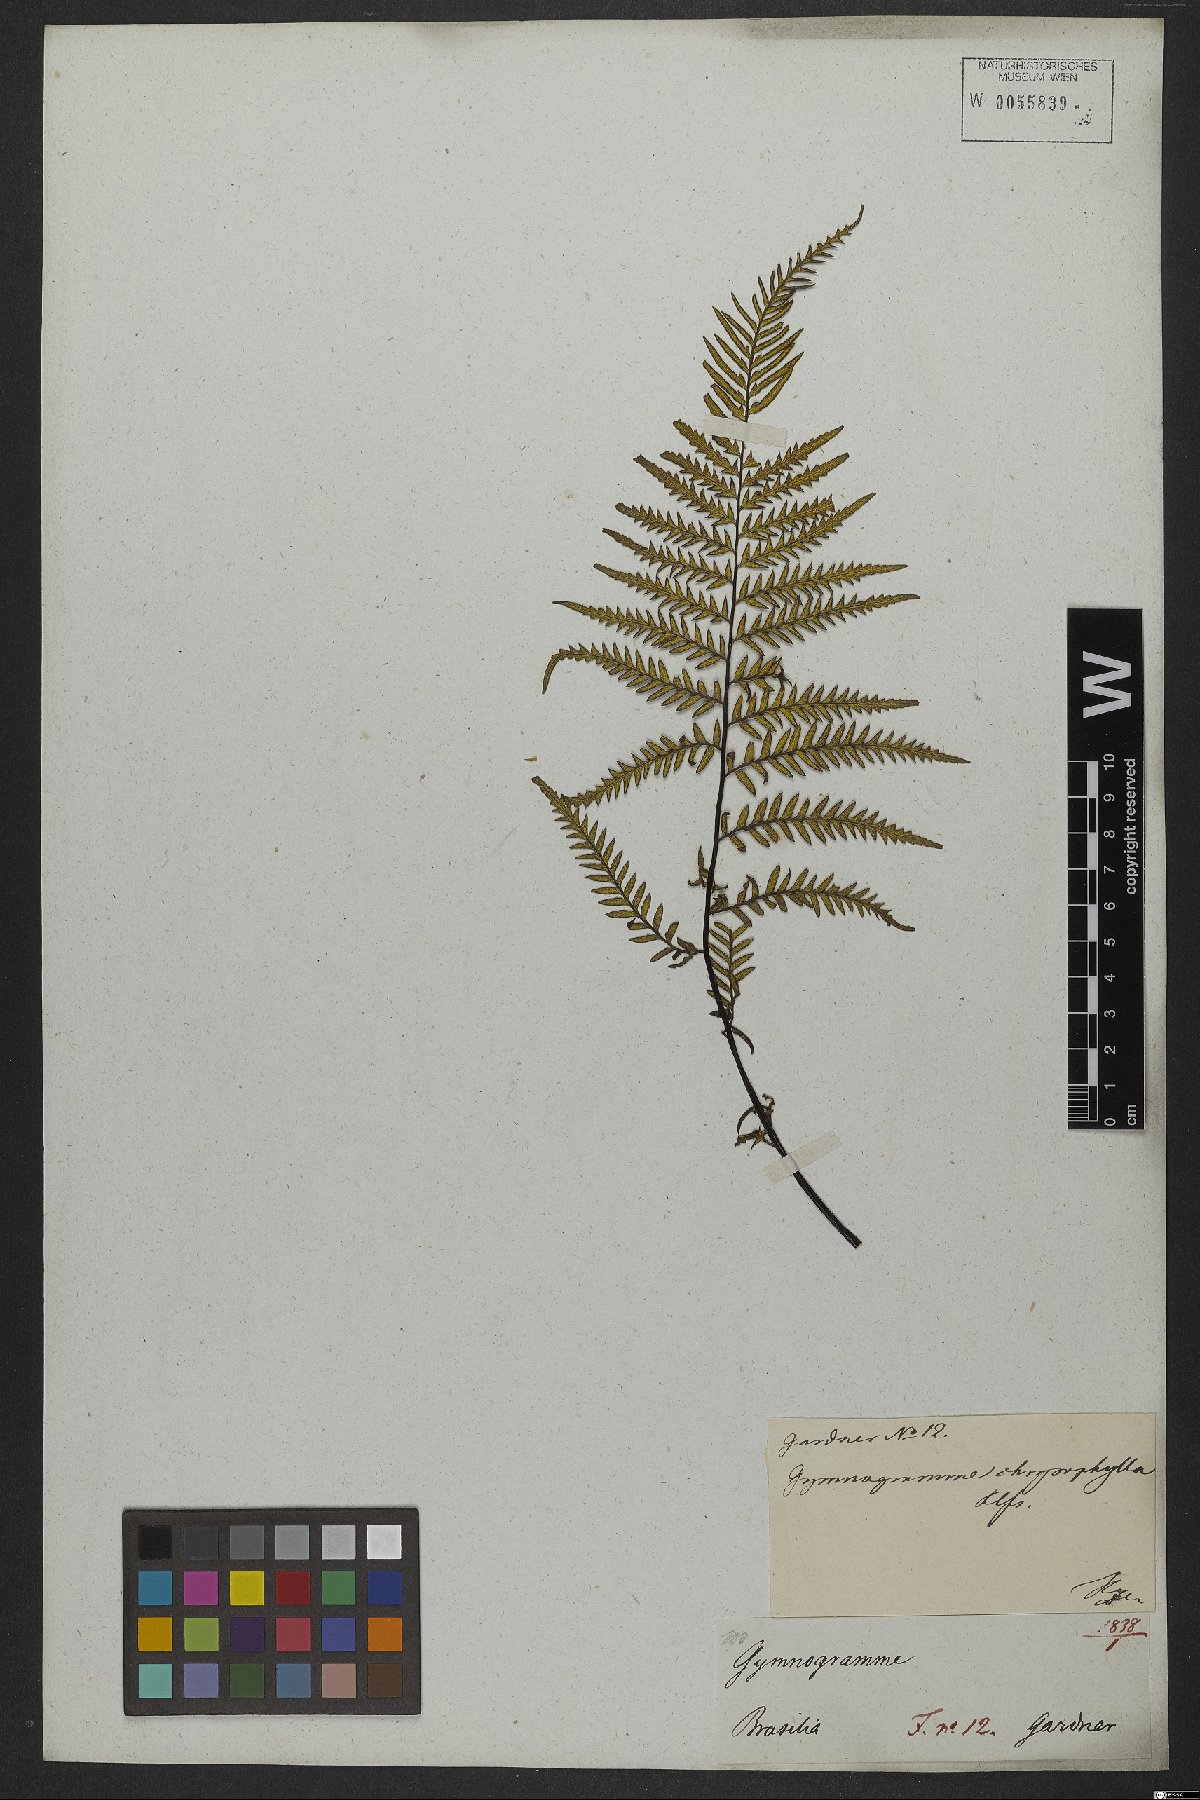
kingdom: Plantae
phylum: Tracheophyta
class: Polypodiopsida
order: Polypodiales
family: Pteridaceae
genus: Pityrogramma
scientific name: Pityrogramma calomelanos
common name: Dixie silverback fern
